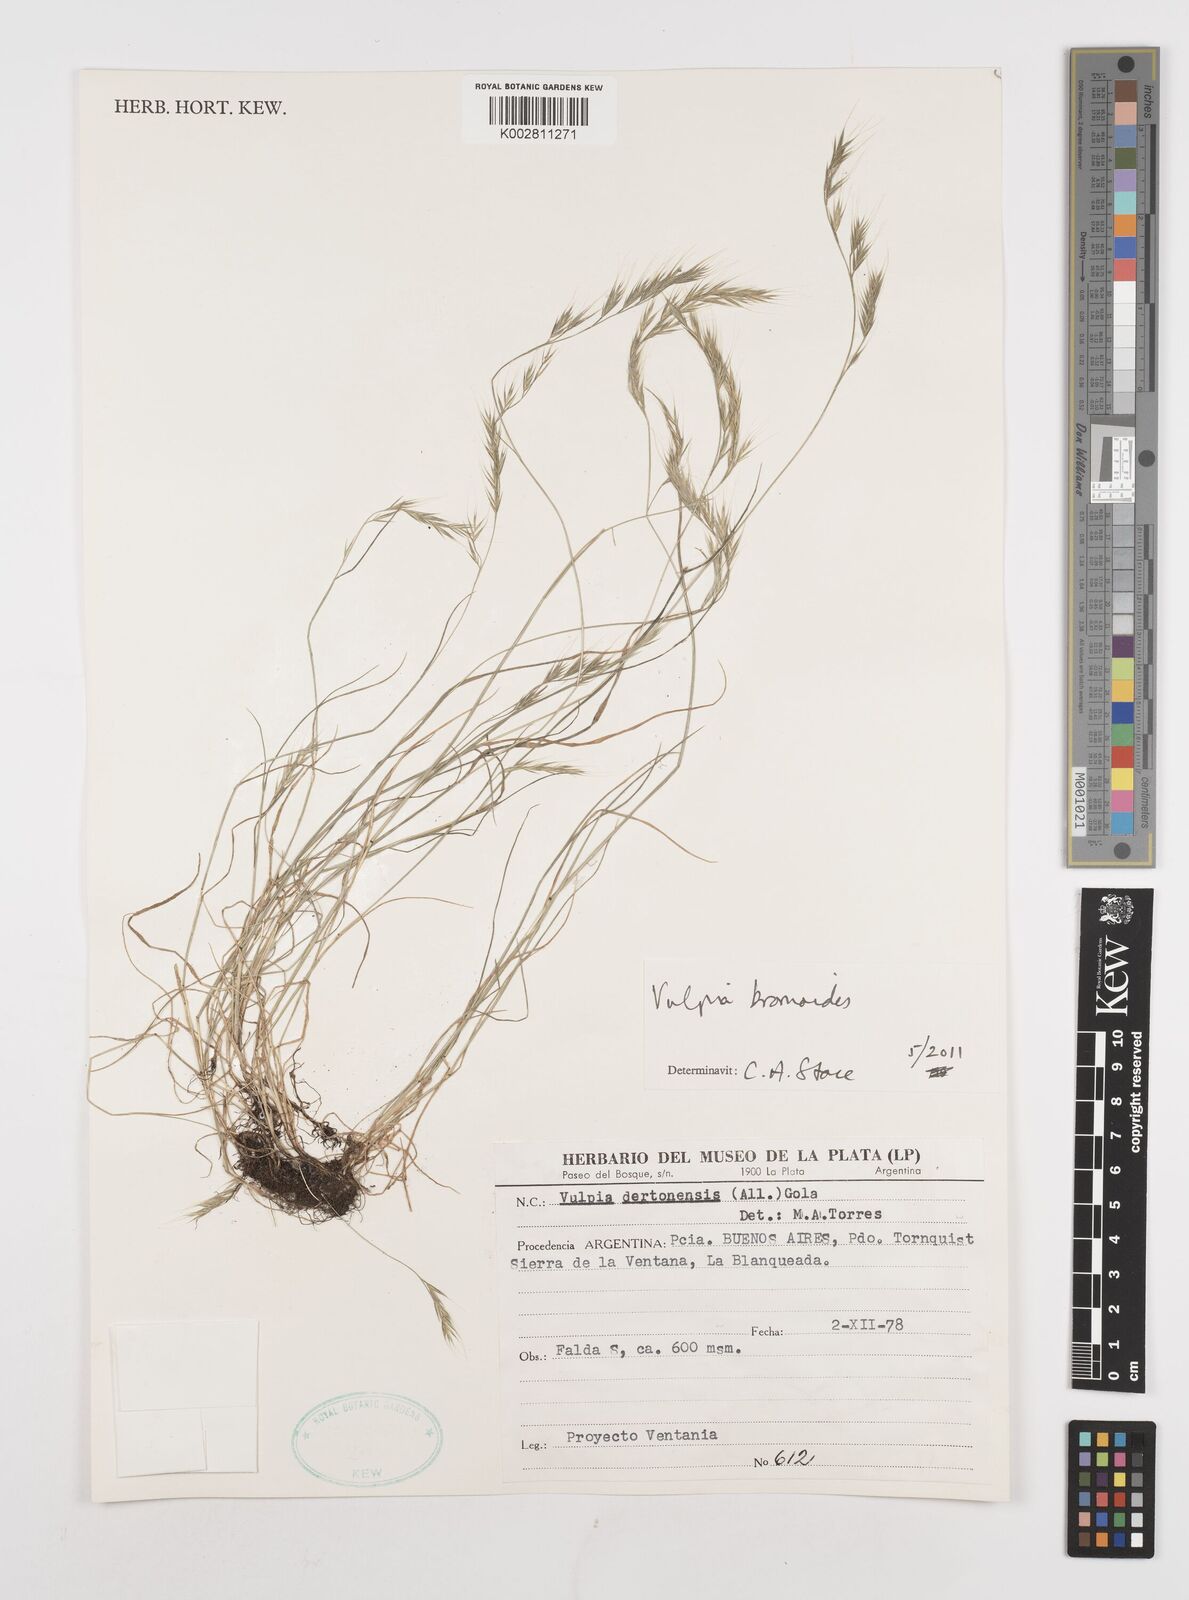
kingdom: Plantae
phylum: Tracheophyta
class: Liliopsida
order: Poales
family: Poaceae
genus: Festuca
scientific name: Festuca bromoides
